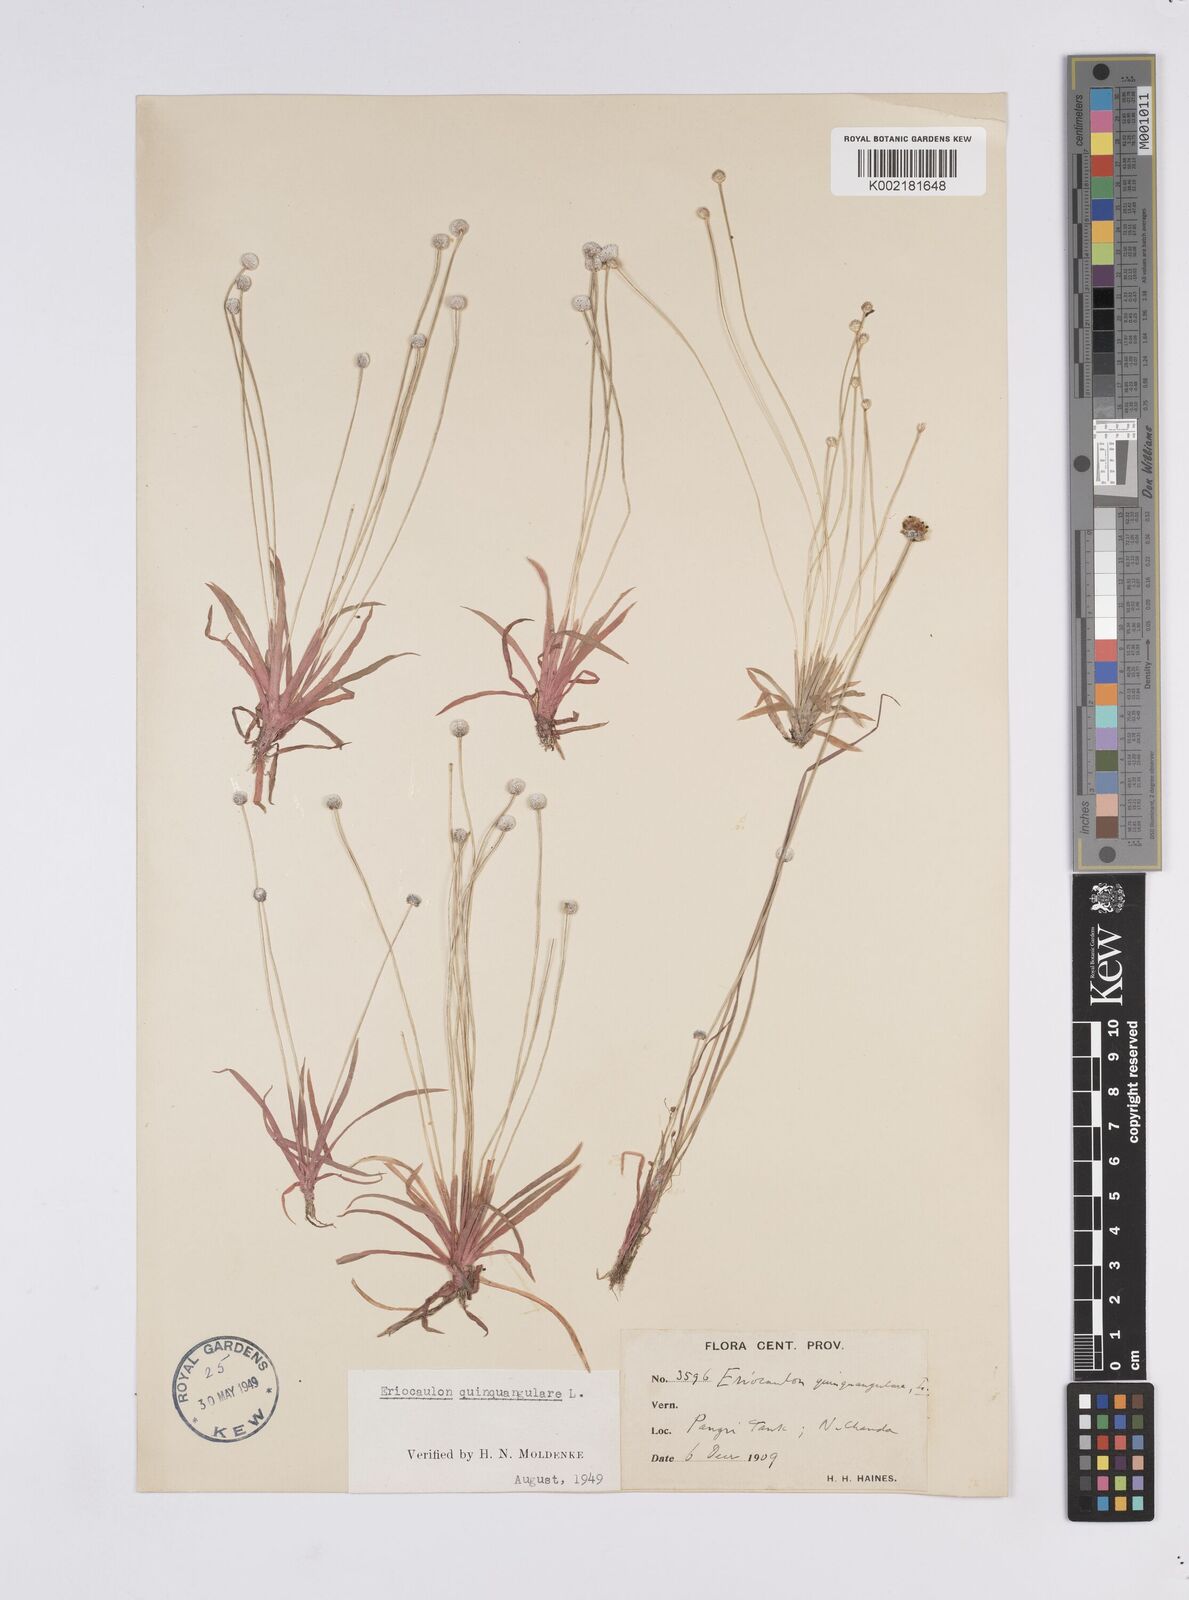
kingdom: Plantae
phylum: Tracheophyta
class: Liliopsida
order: Poales
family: Eriocaulaceae
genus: Eriocaulon
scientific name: Eriocaulon quinquangulare
